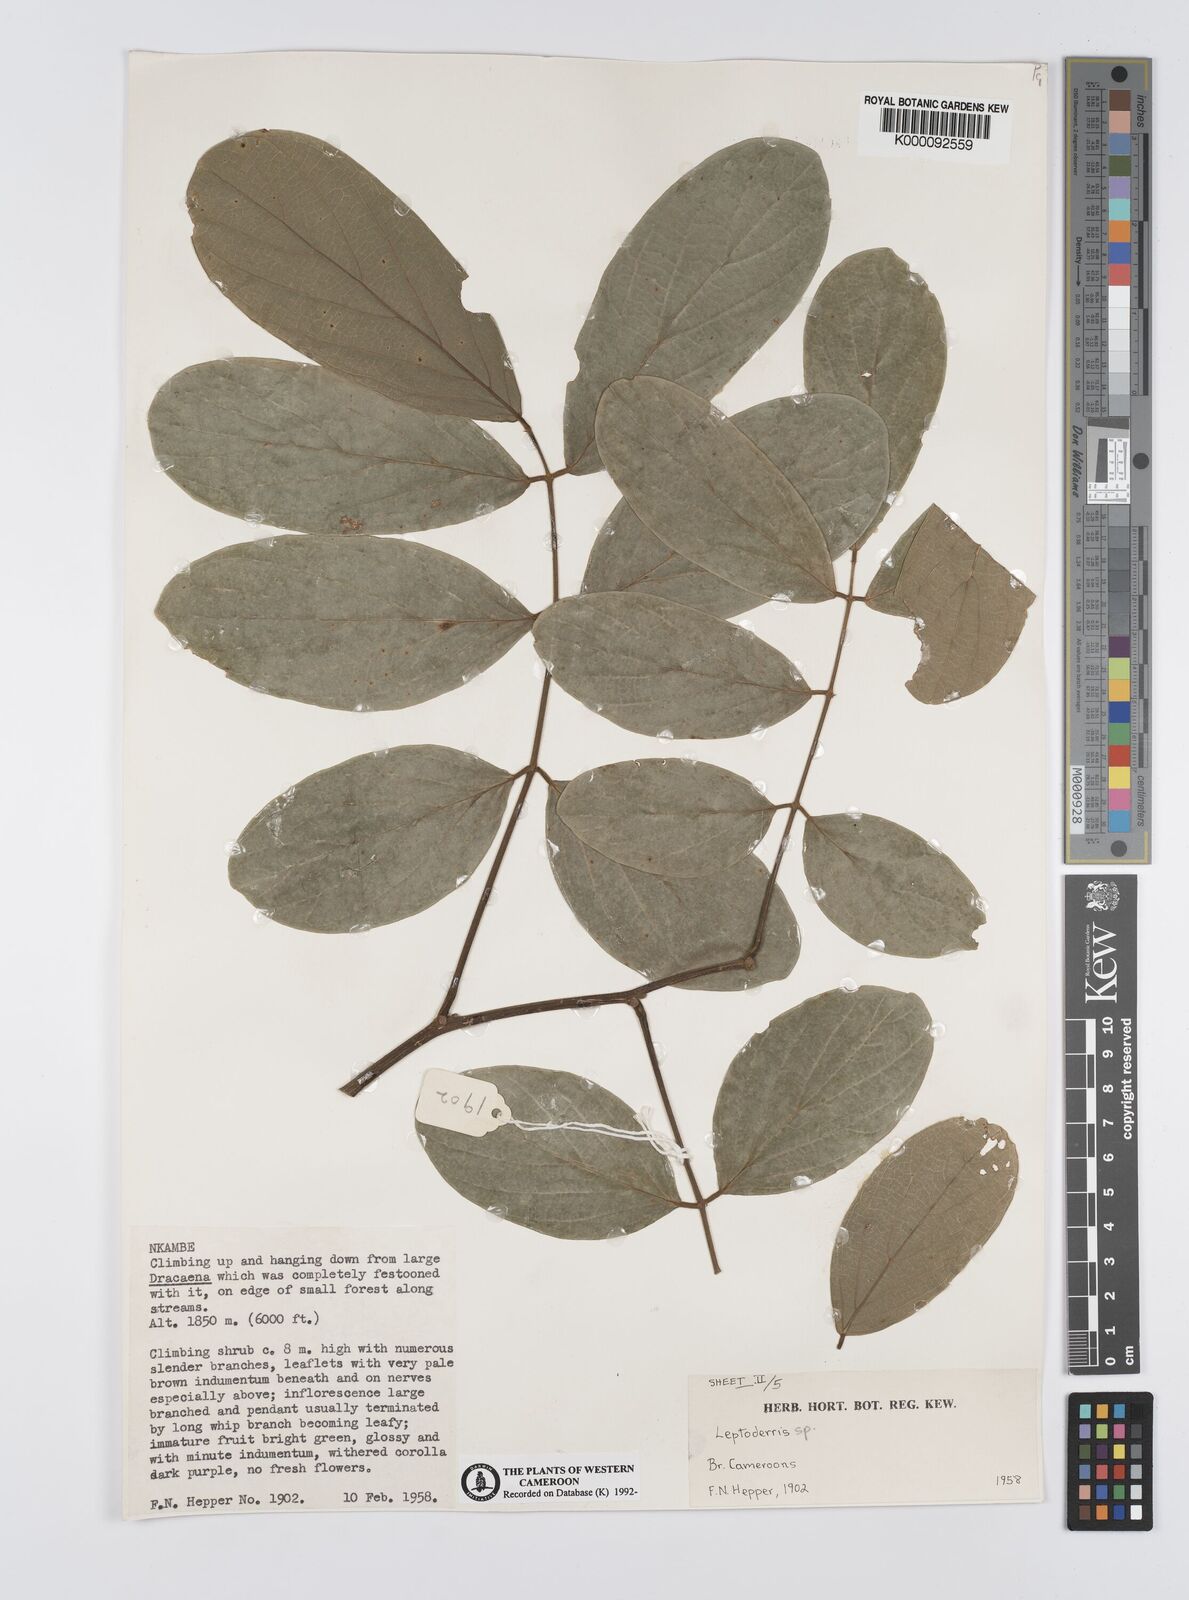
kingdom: Plantae
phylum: Tracheophyta
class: Magnoliopsida
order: Fabales
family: Fabaceae
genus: Leptoderris
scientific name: Leptoderris
